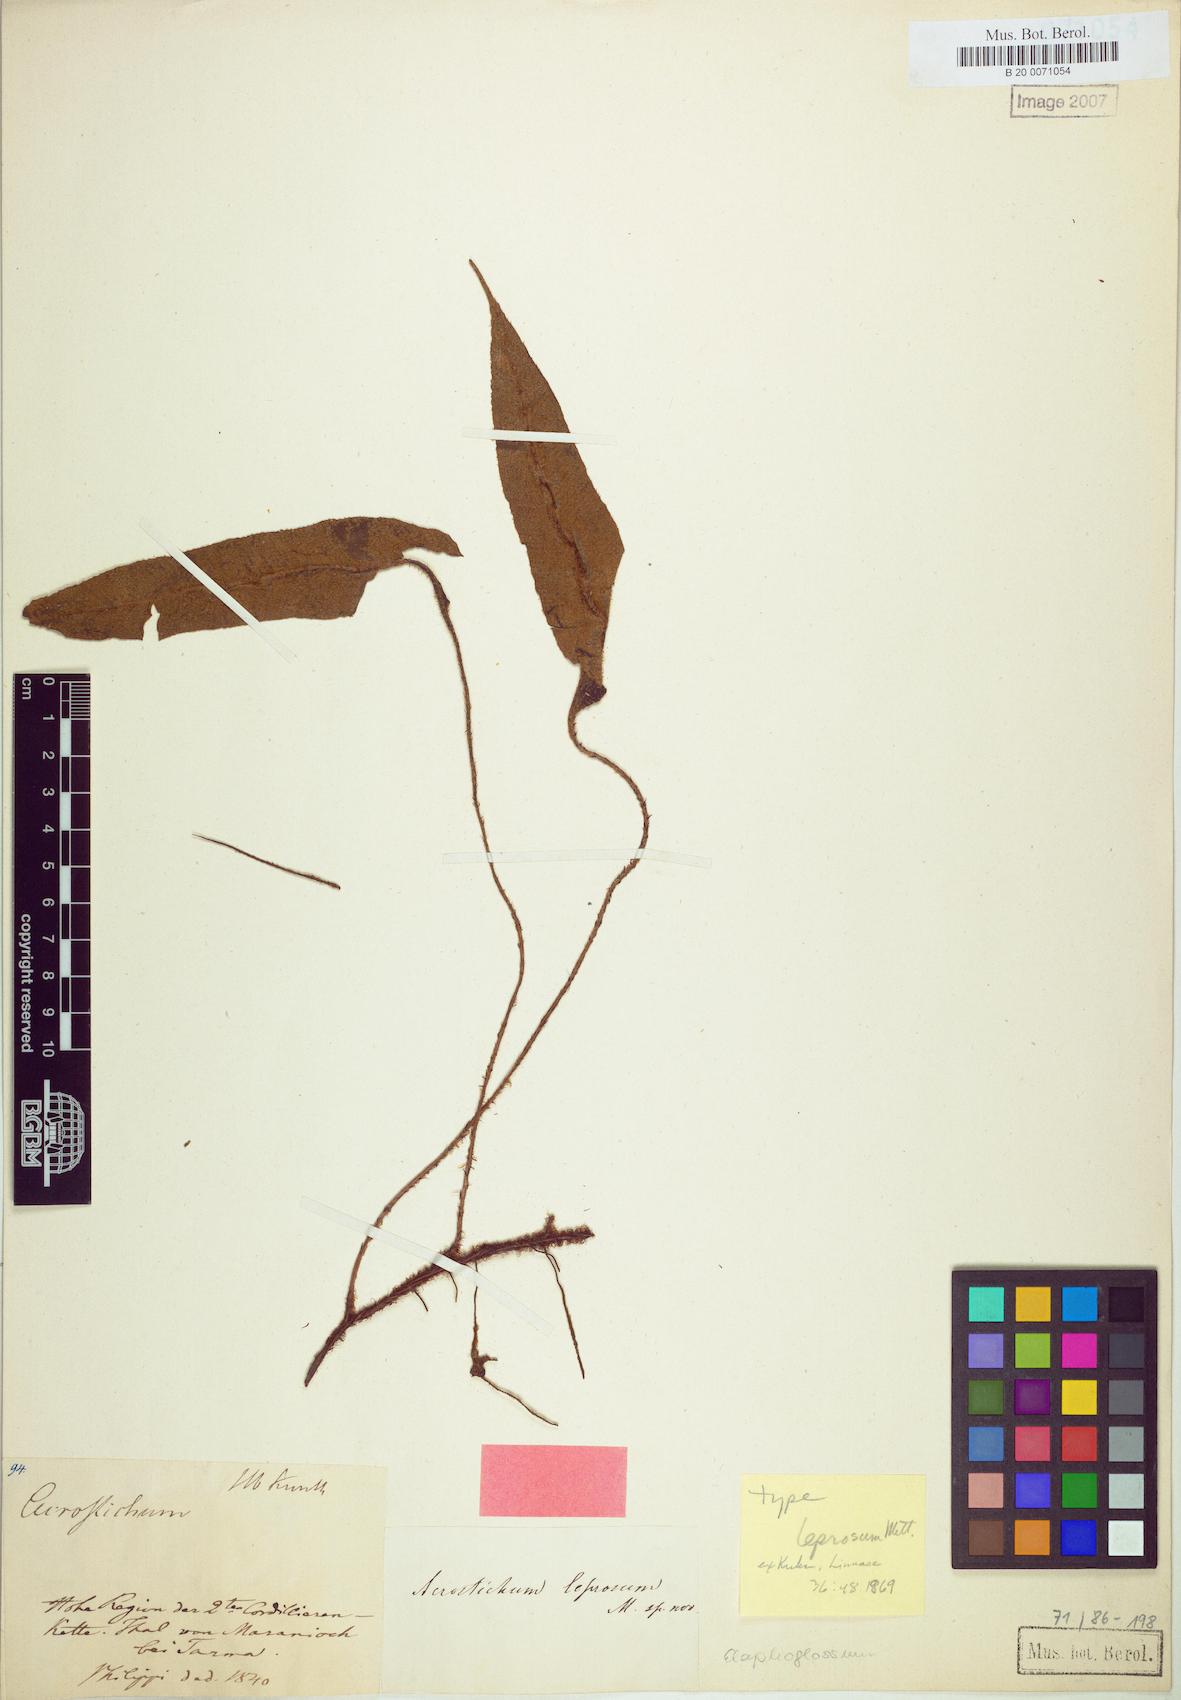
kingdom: Plantae
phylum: Tracheophyta
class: Polypodiopsida
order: Polypodiales
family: Dryopteridaceae
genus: Elaphoglossum
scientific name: Elaphoglossum leprosum
